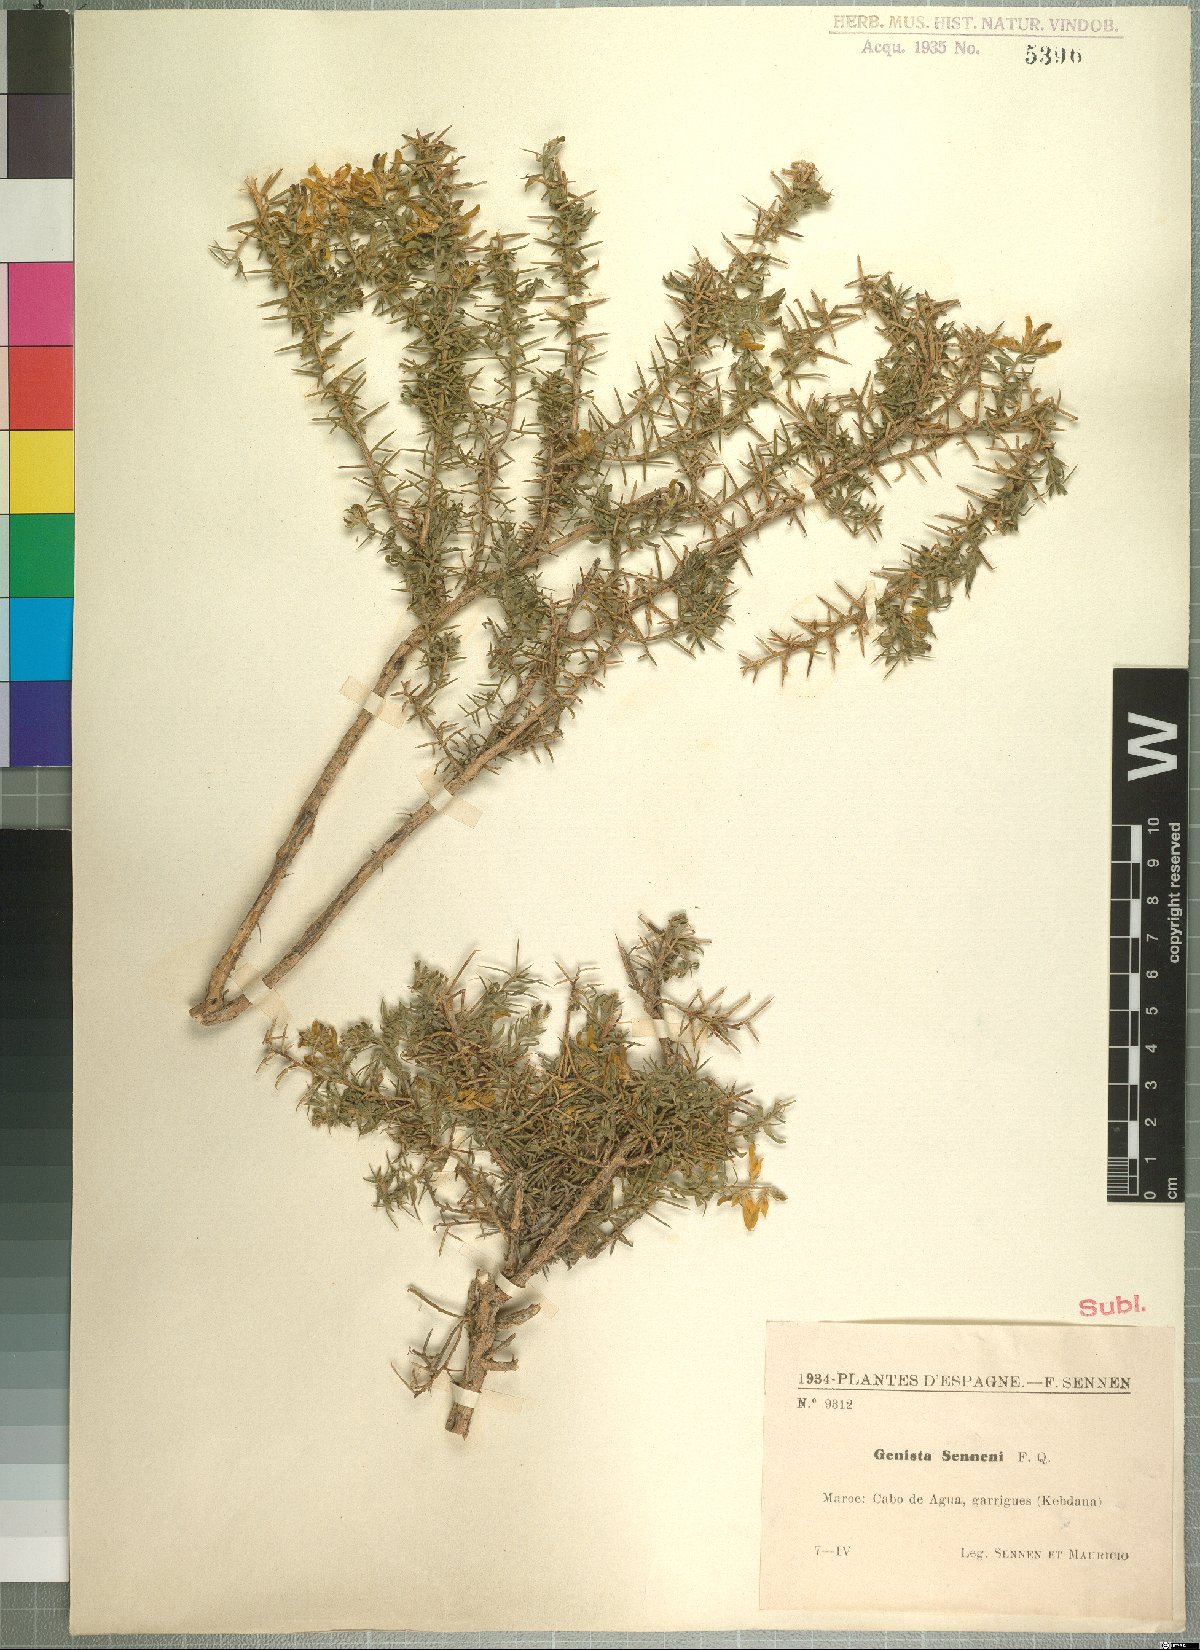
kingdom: Plantae
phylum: Tracheophyta
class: Magnoliopsida
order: Fabales
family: Fabaceae
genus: Genista
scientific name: Genista tricuspidata
